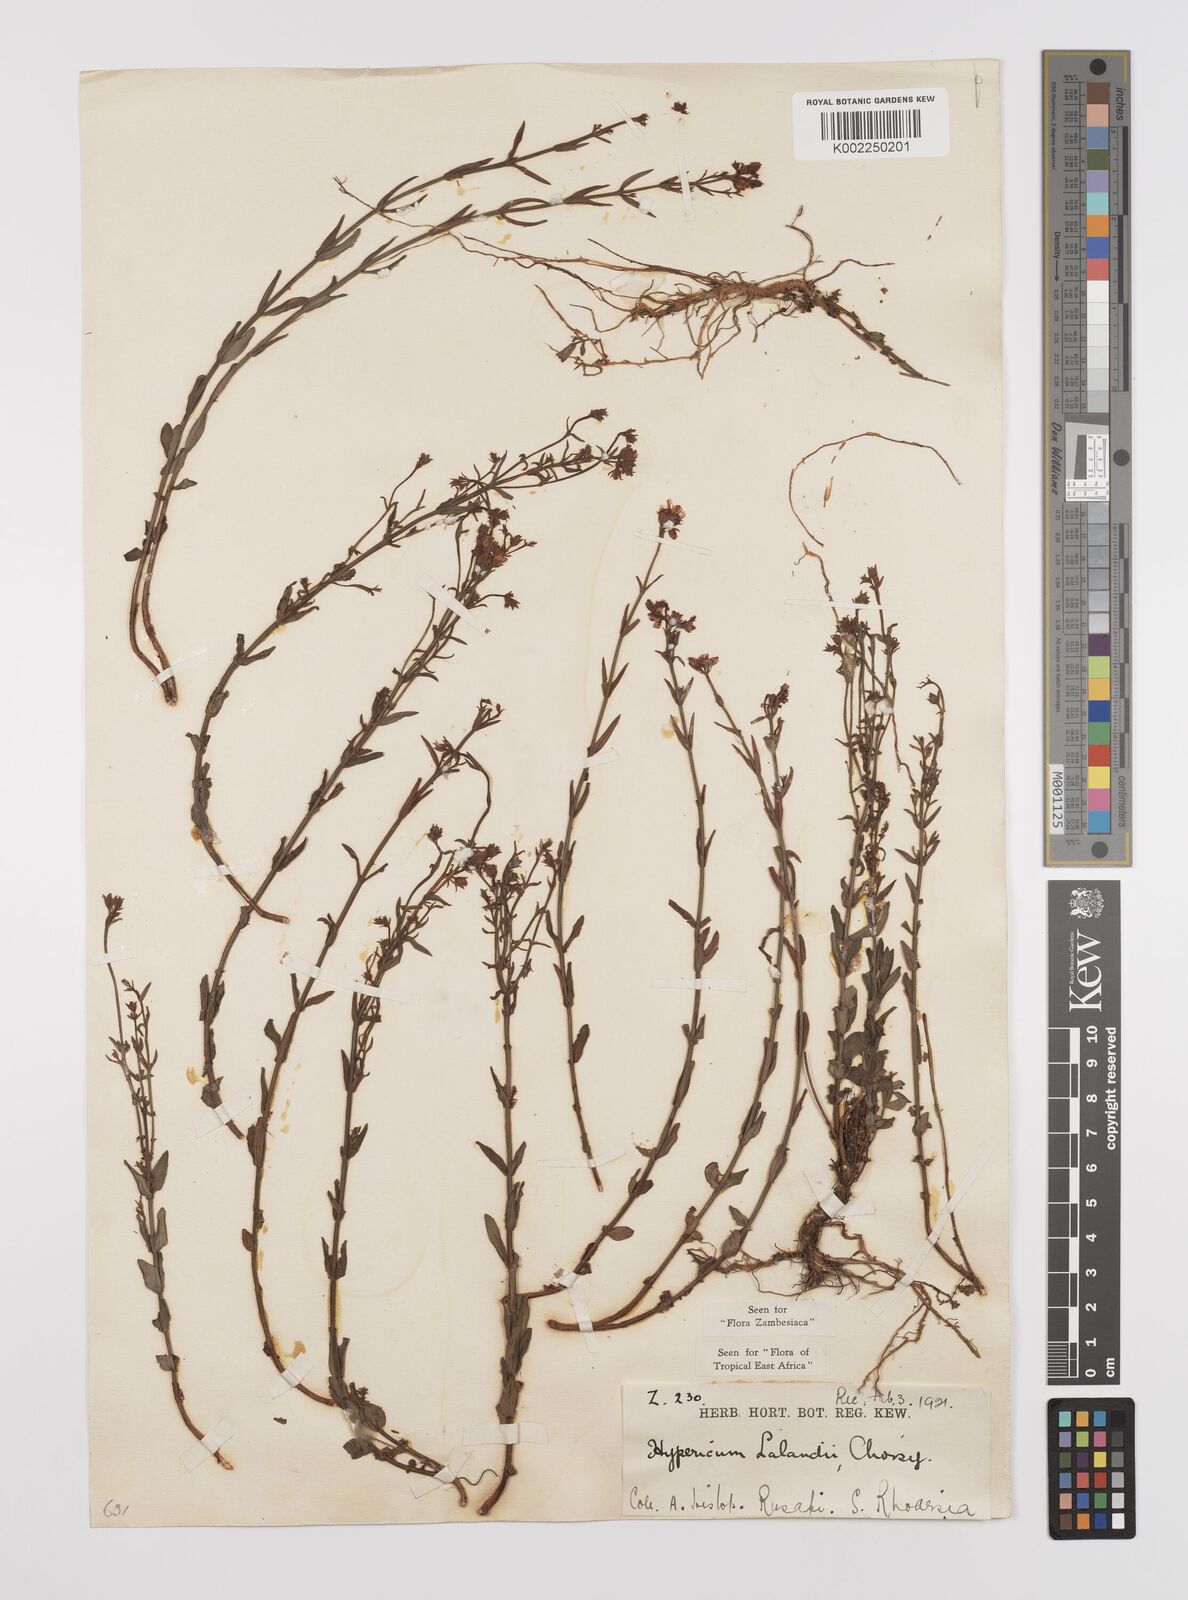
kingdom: Plantae
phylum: Tracheophyta
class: Magnoliopsida
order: Malpighiales
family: Hypericaceae
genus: Hypericum
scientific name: Hypericum lalandii
